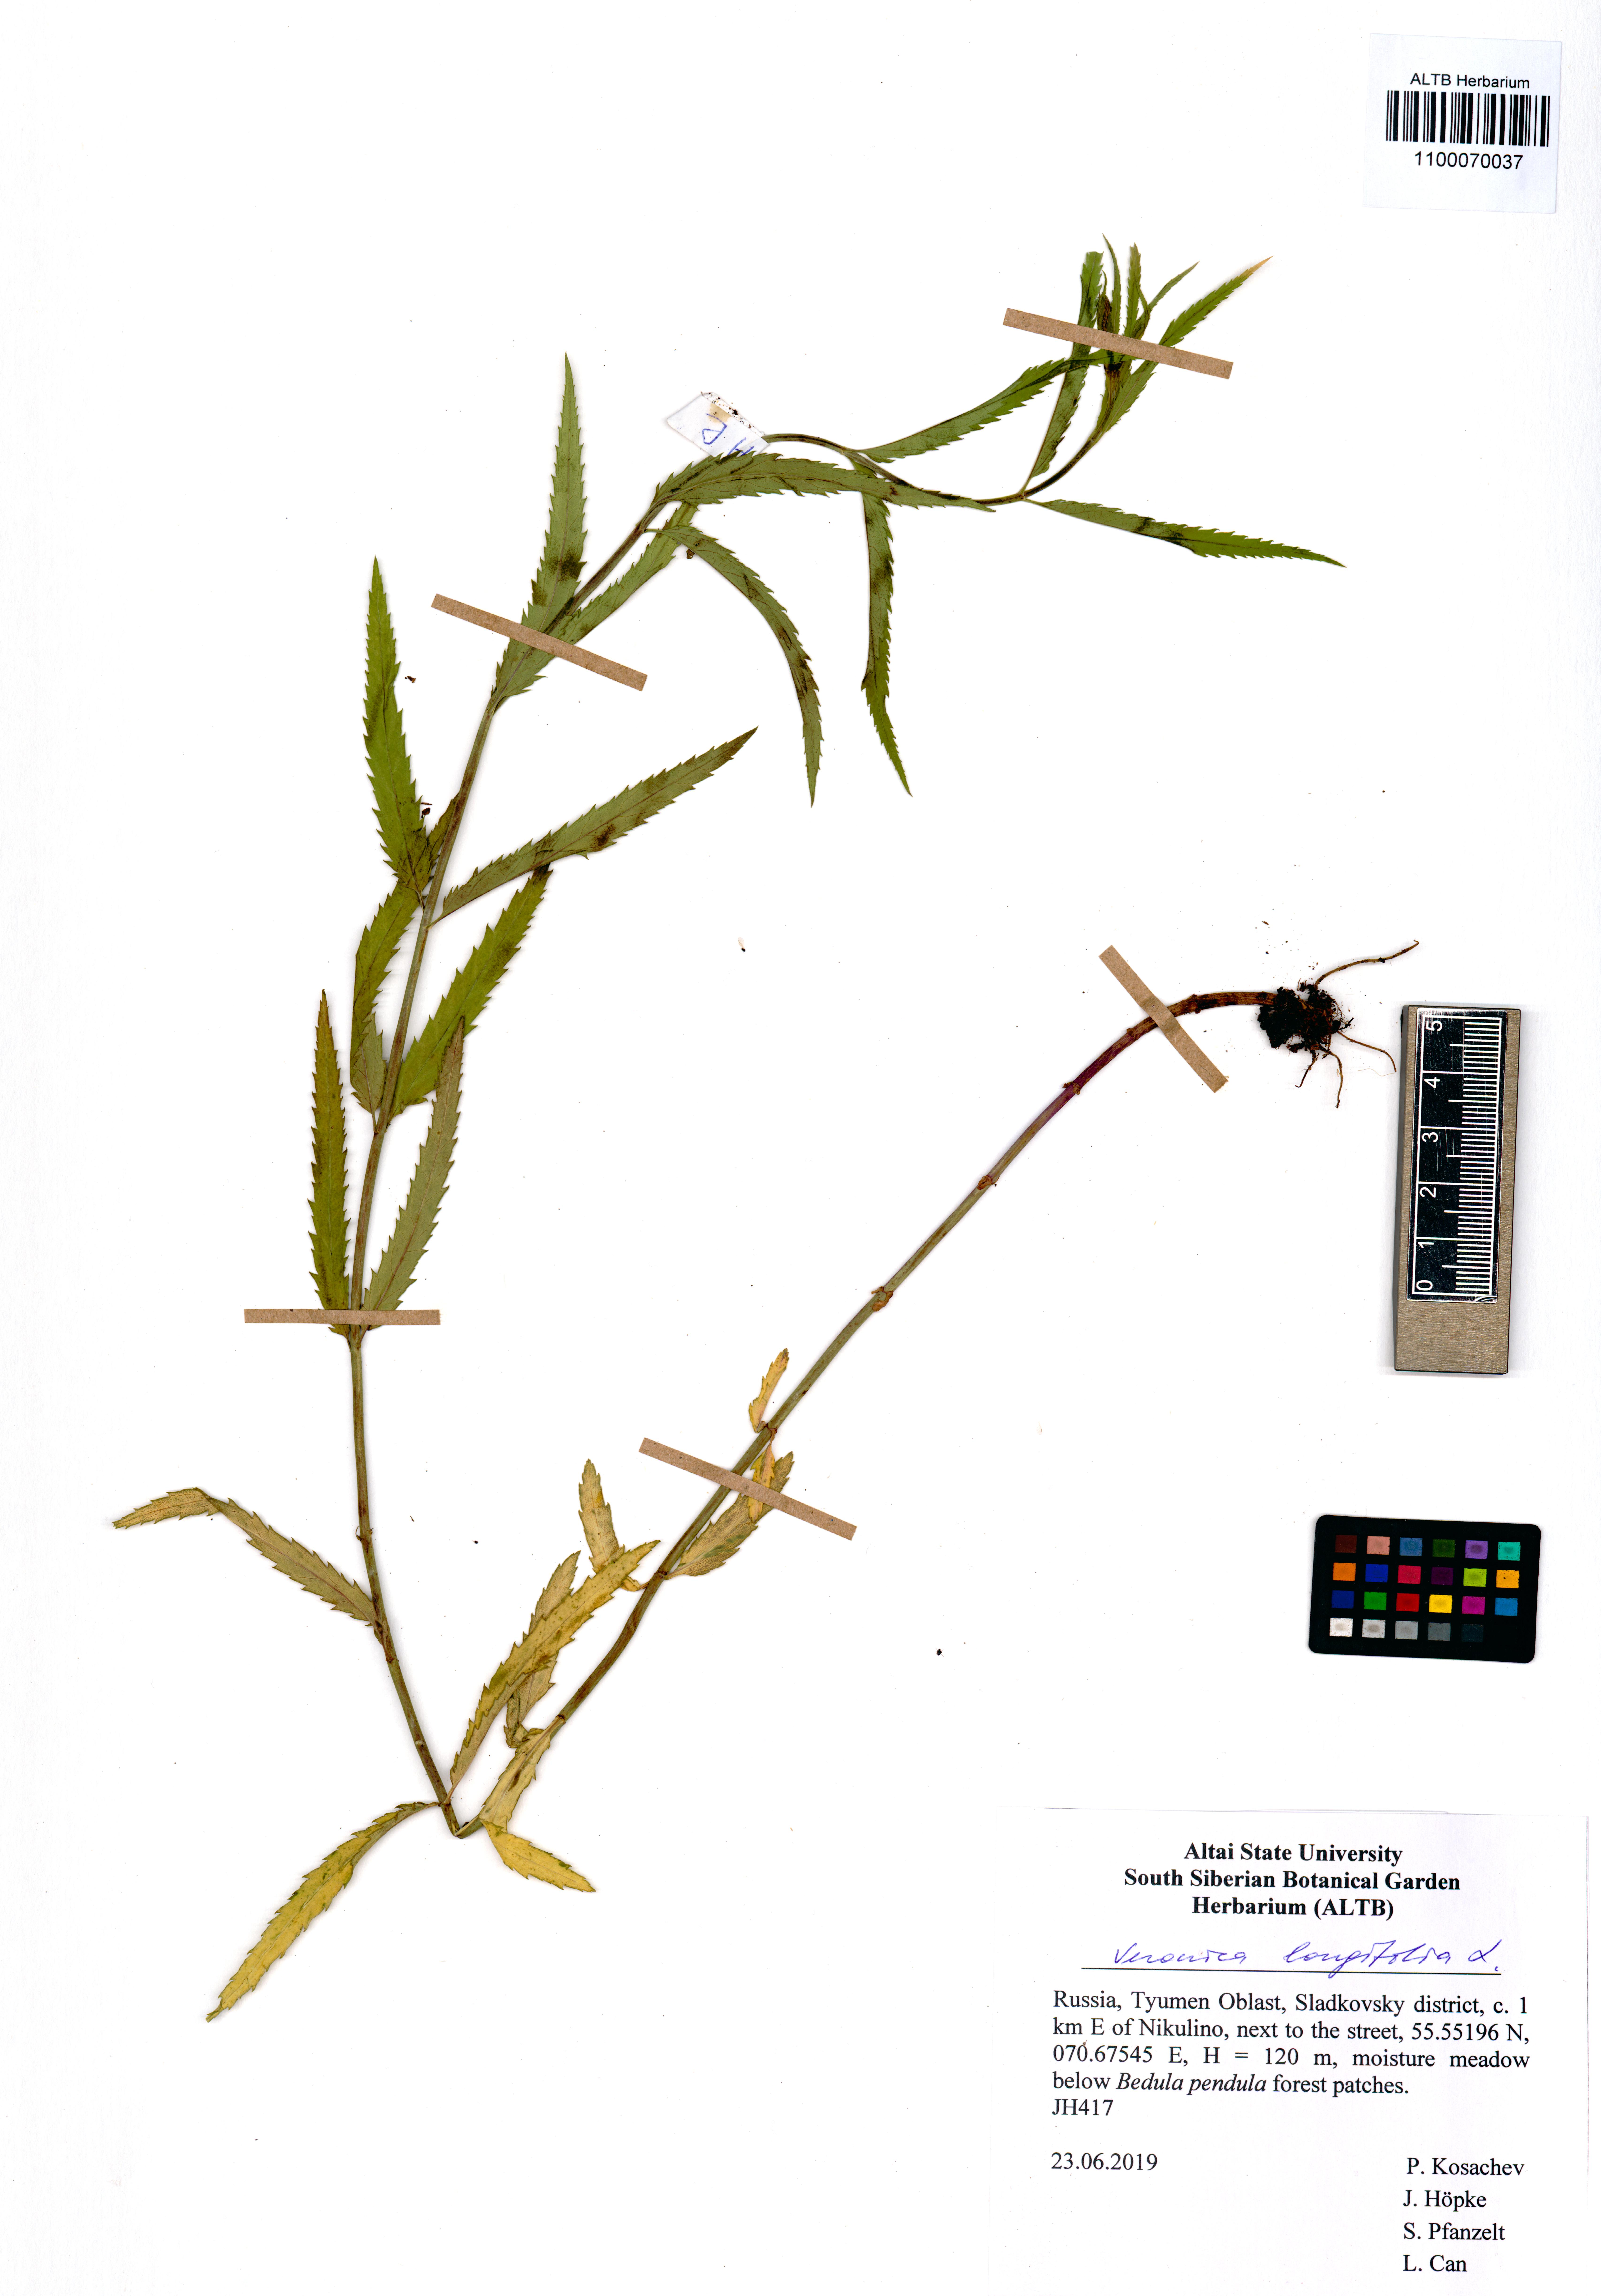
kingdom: Plantae
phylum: Tracheophyta
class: Magnoliopsida
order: Lamiales
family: Plantaginaceae
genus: Veronica
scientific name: Veronica longifolia
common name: Garden speedwell
